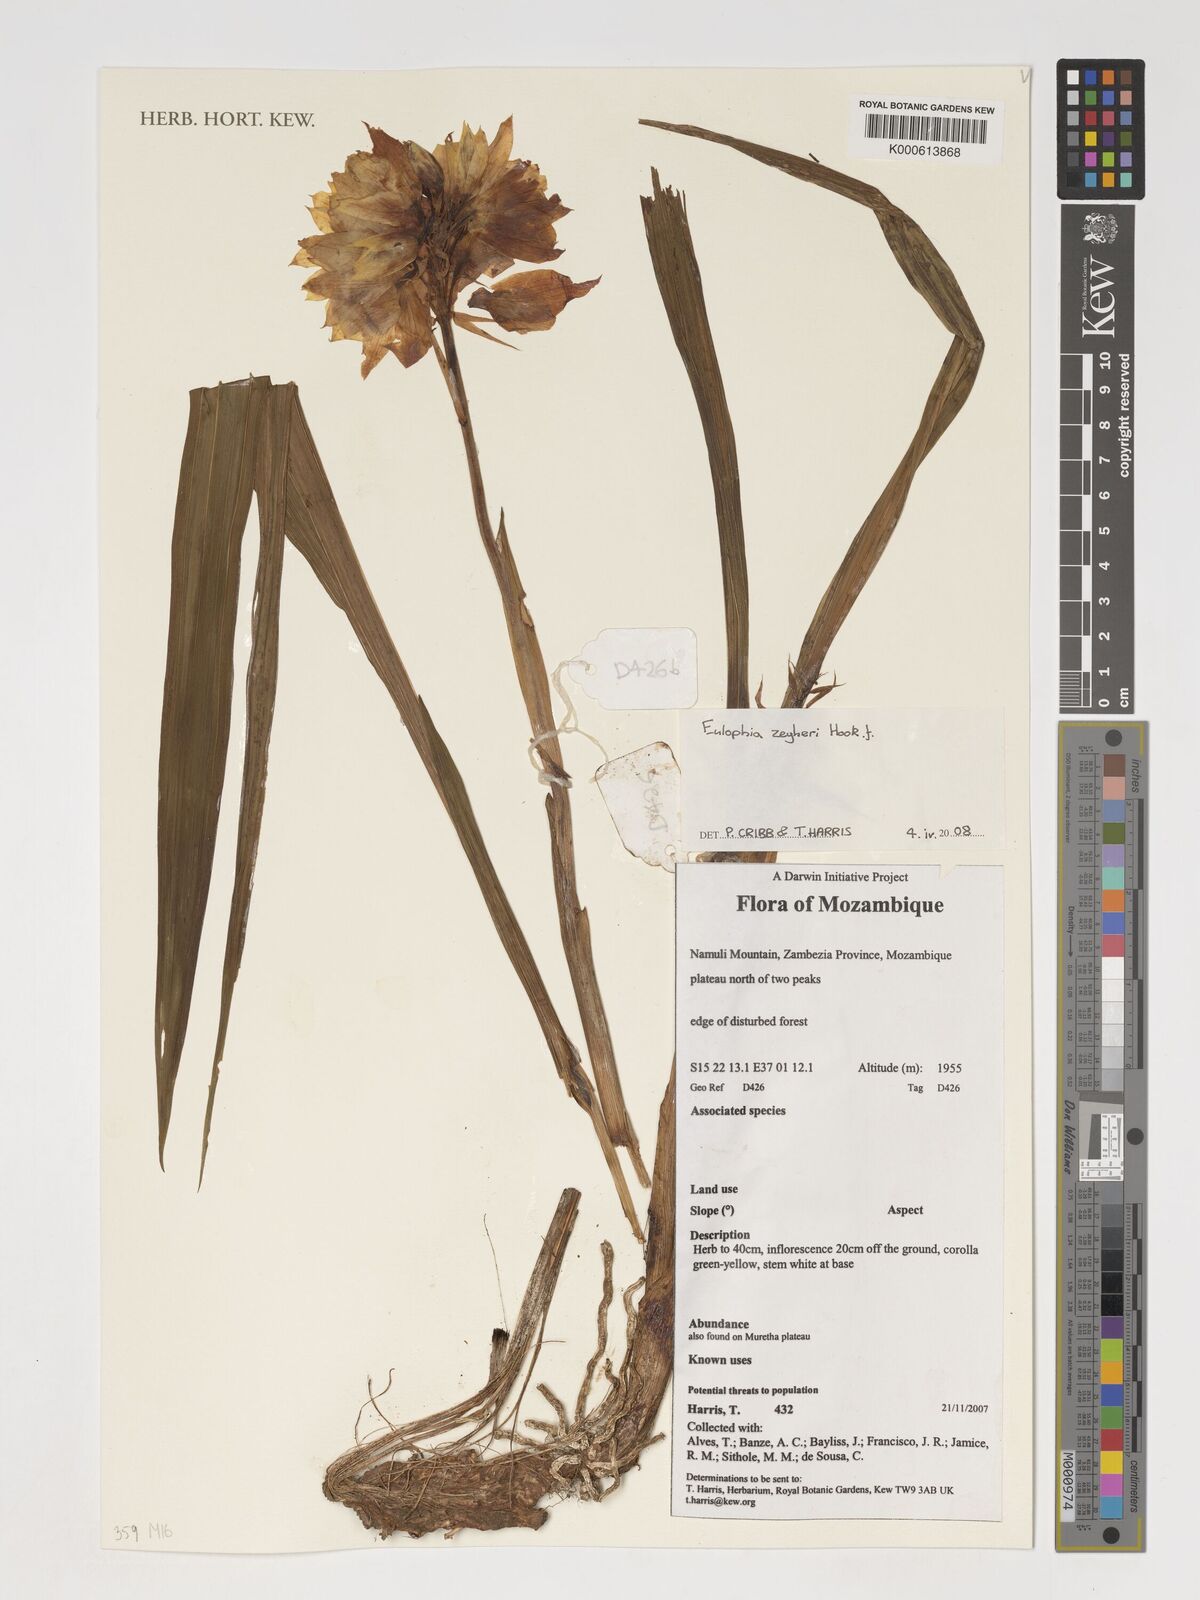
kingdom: Plantae
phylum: Tracheophyta
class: Liliopsida
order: Asparagales
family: Orchidaceae
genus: Eulophia
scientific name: Eulophia mechowii
